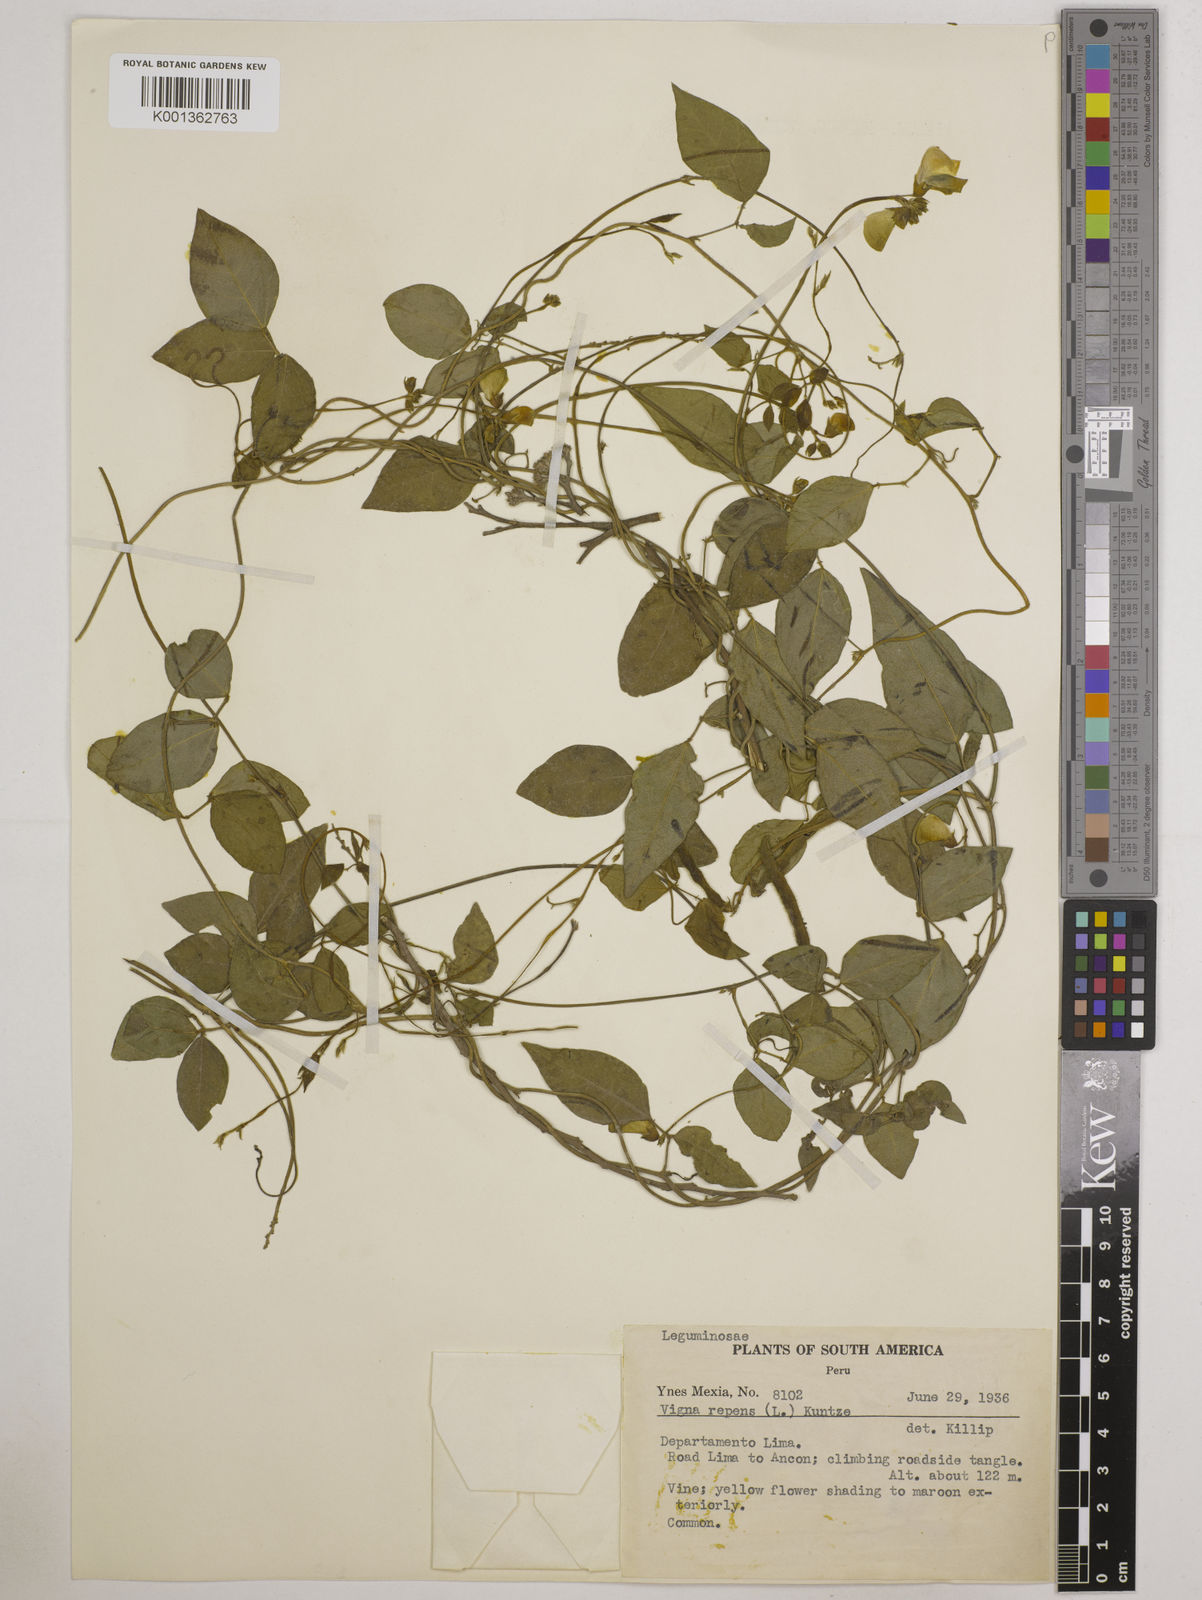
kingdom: Plantae
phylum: Tracheophyta
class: Magnoliopsida
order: Fabales
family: Fabaceae
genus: Vigna
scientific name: Vigna luteola
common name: Hairypod cowpea
